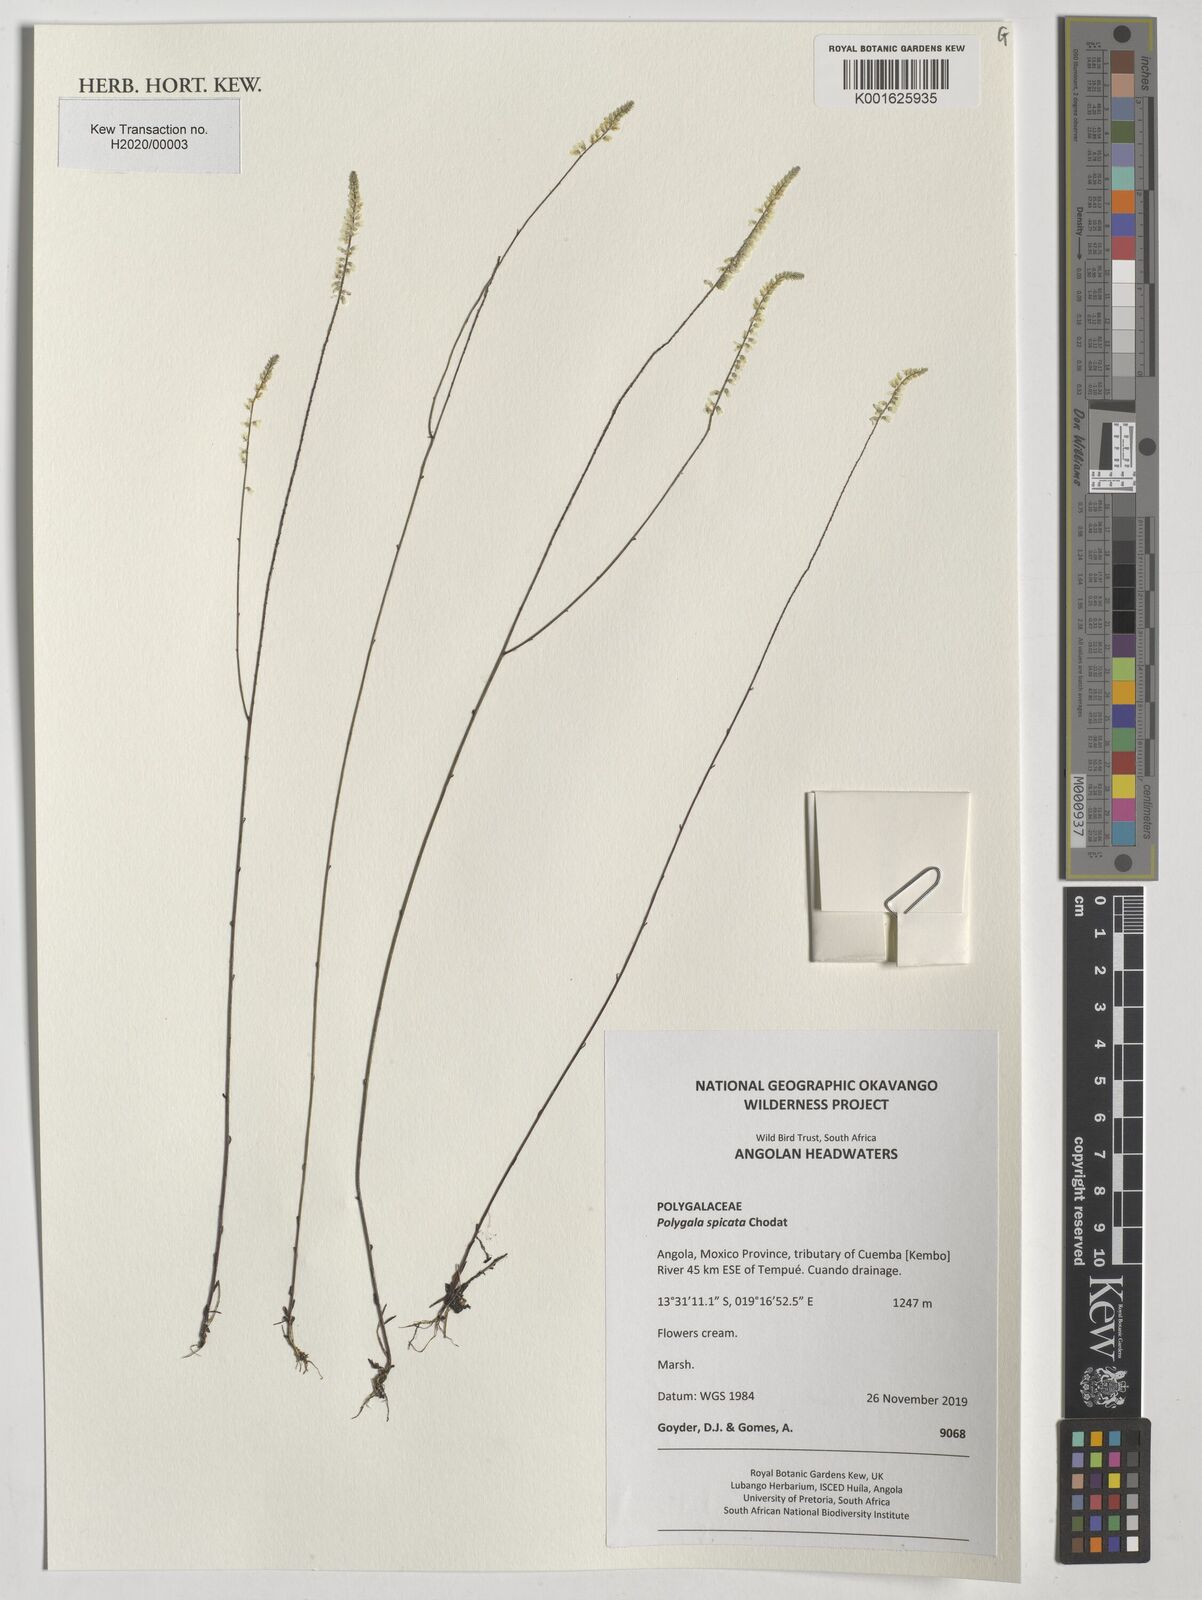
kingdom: Plantae
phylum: Tracheophyta
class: Magnoliopsida
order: Fabales
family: Polygalaceae
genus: Polygala
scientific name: Polygala spicata
